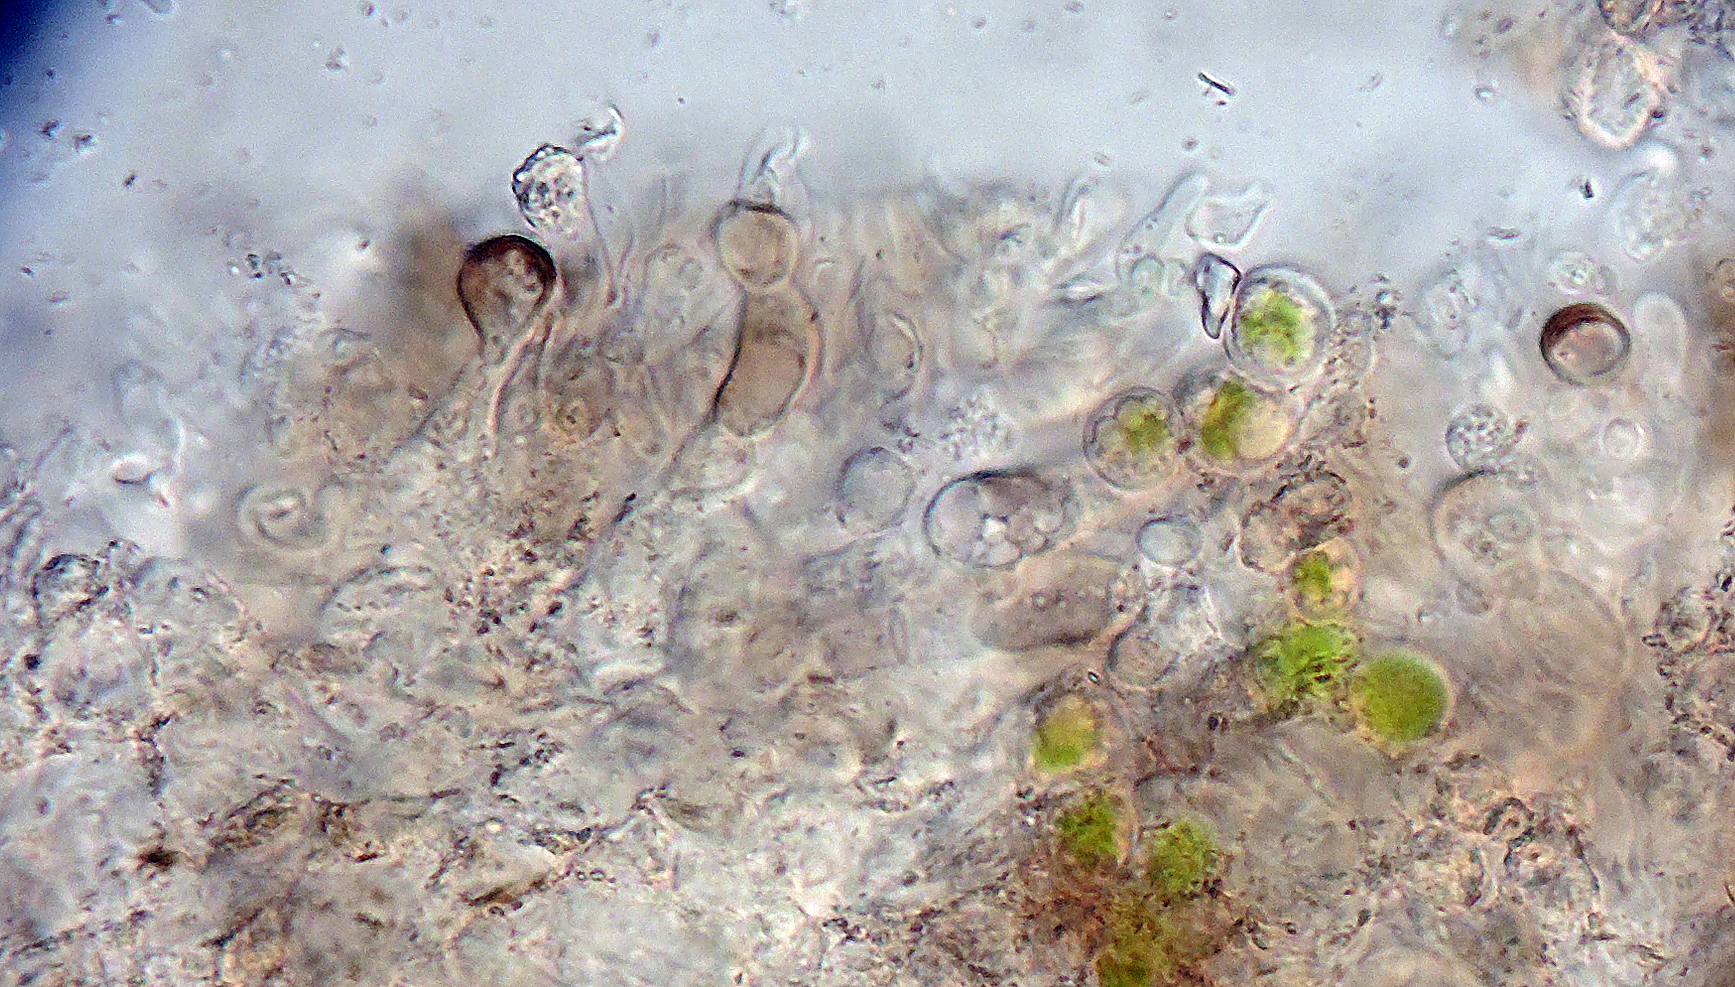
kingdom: Fungi
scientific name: Fungi
